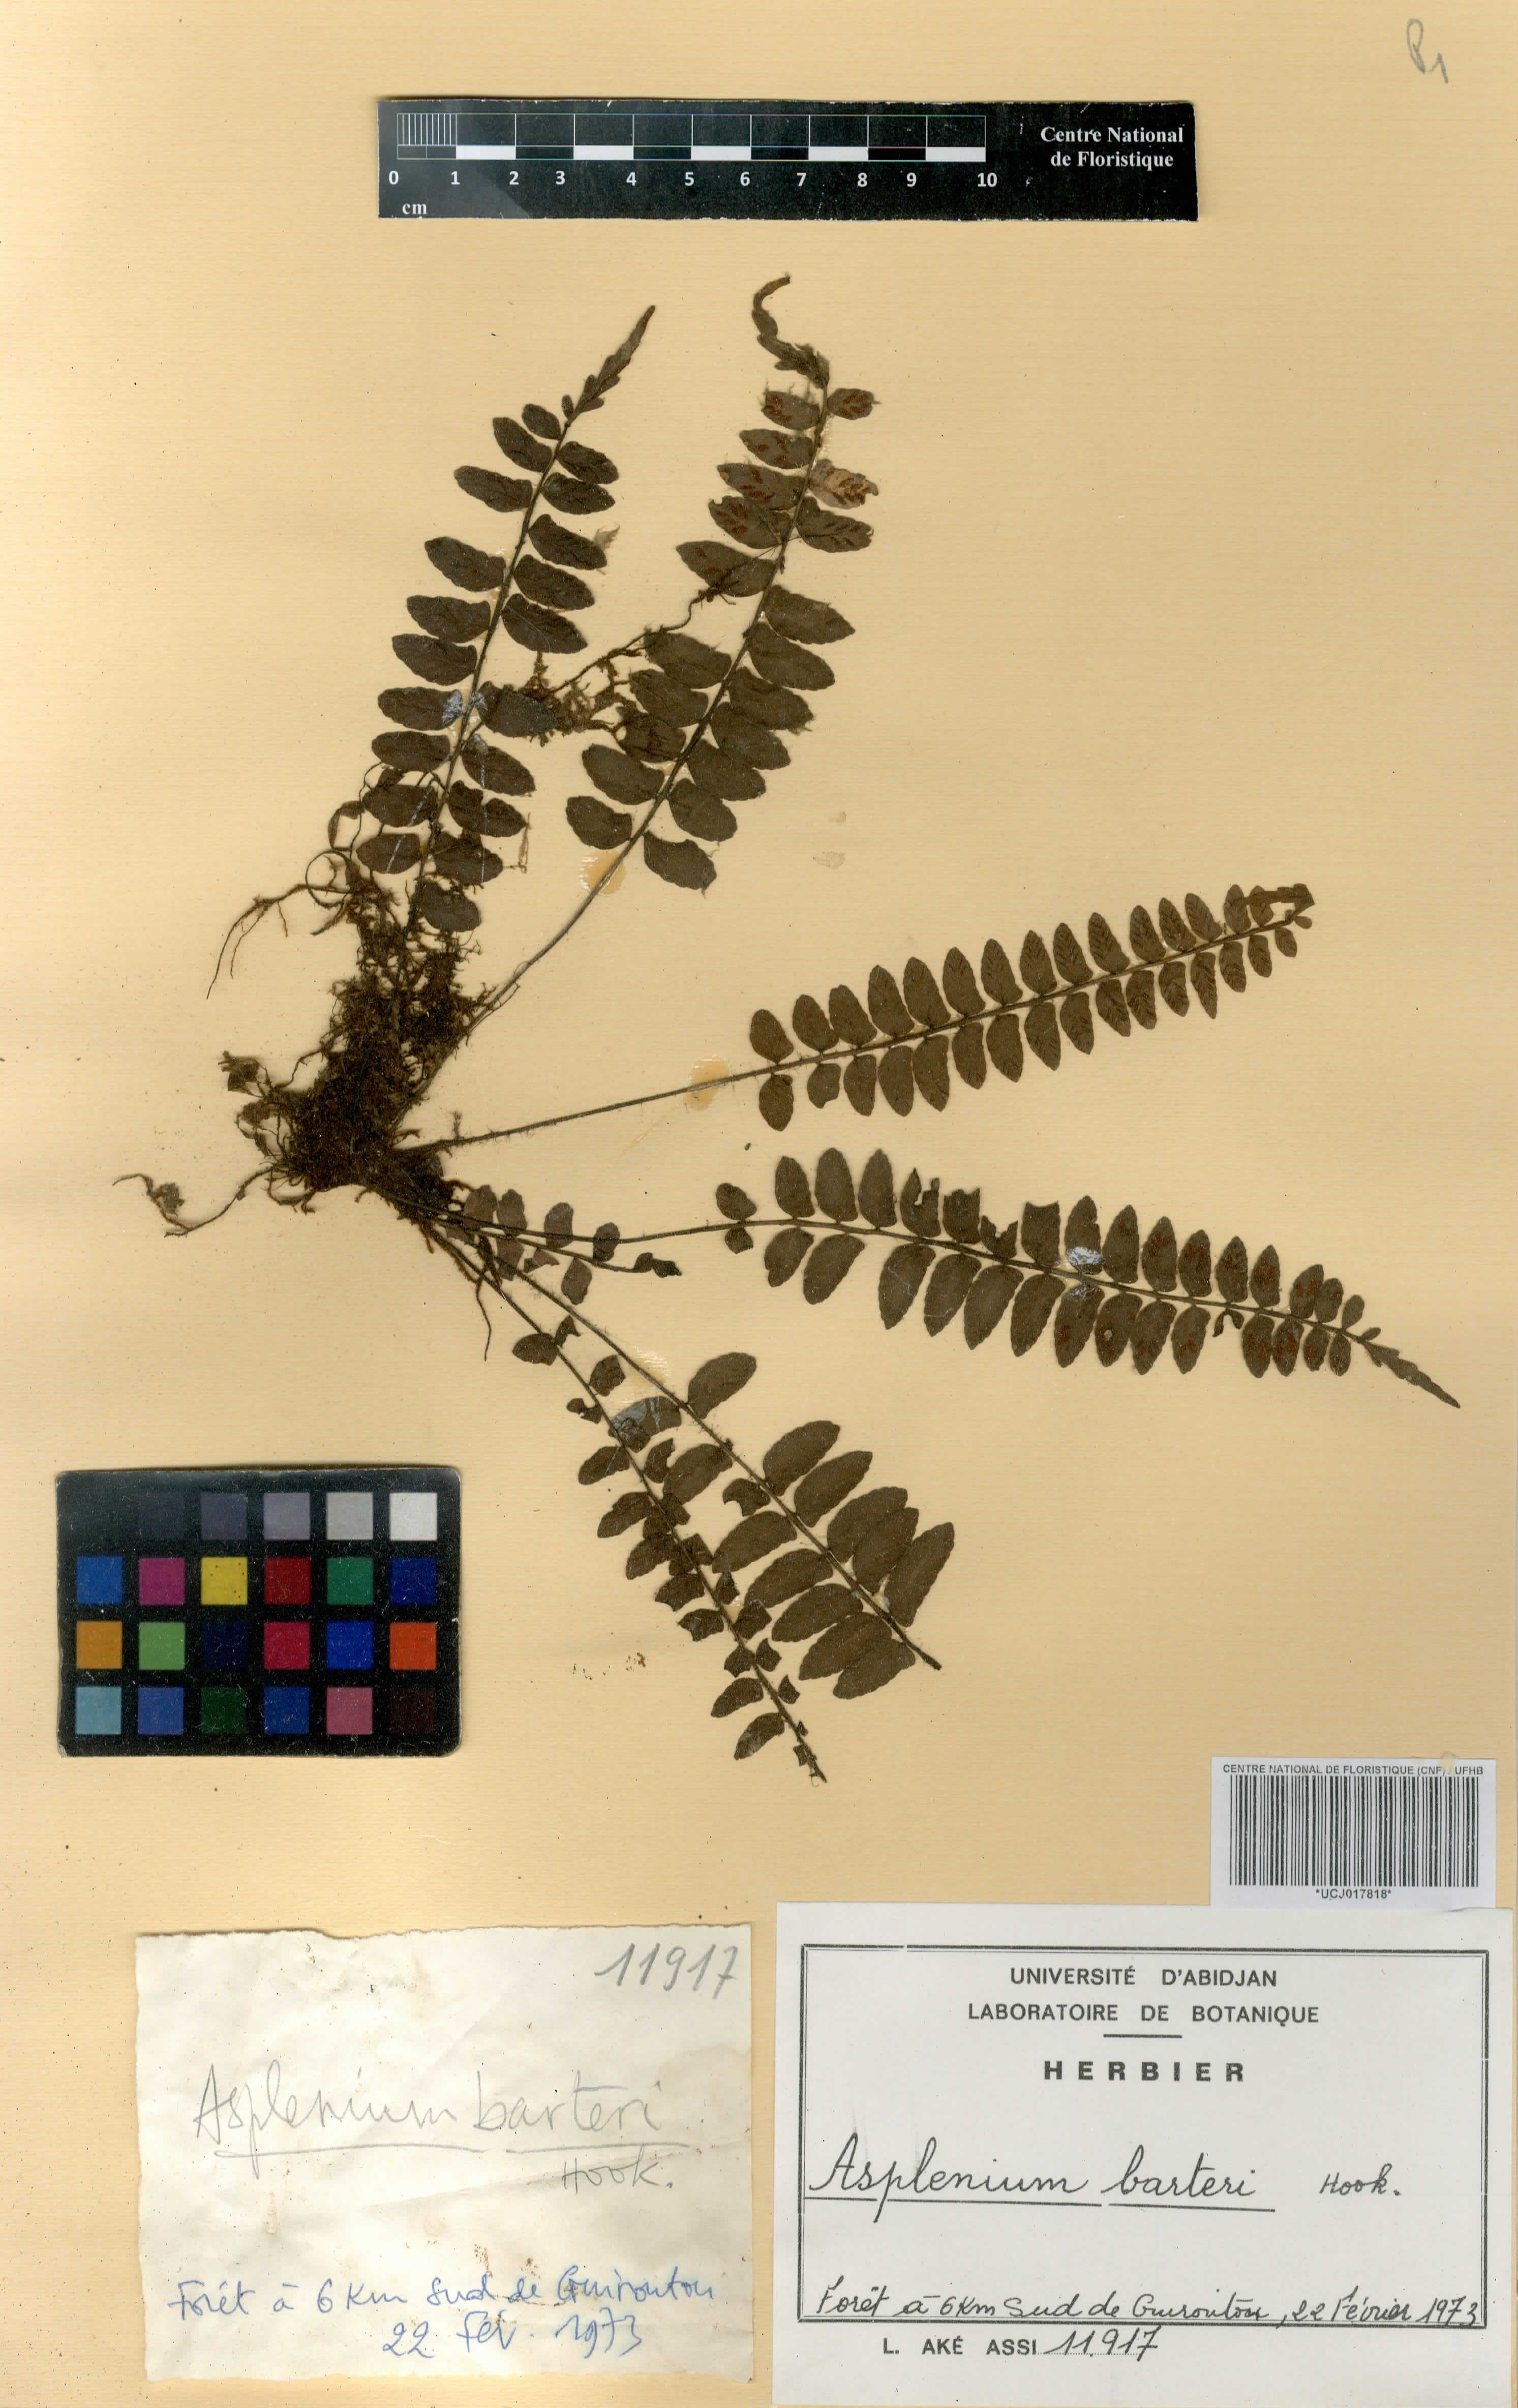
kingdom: Plantae
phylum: Tracheophyta
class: Polypodiopsida
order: Polypodiales
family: Aspleniaceae
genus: Asplenium
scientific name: Asplenium barteri
